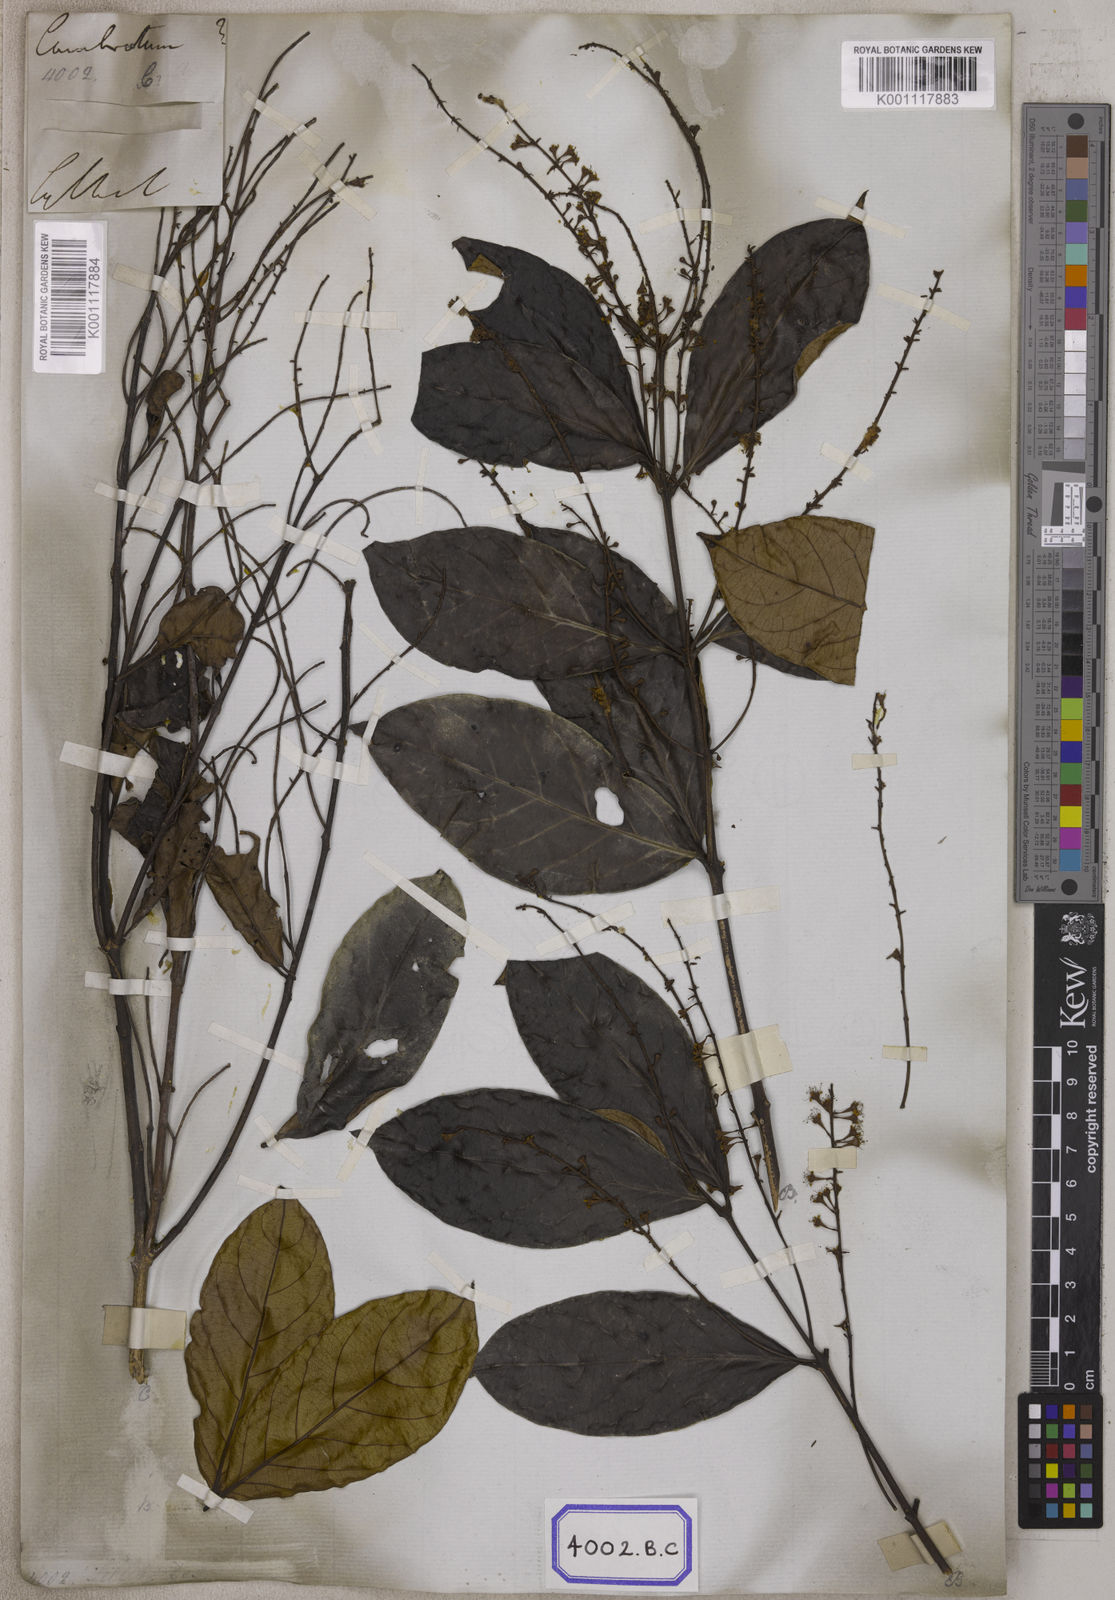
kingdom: Plantae
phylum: Tracheophyta
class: Magnoliopsida
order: Myrtales
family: Combretaceae
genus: Combretum
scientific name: Combretum
